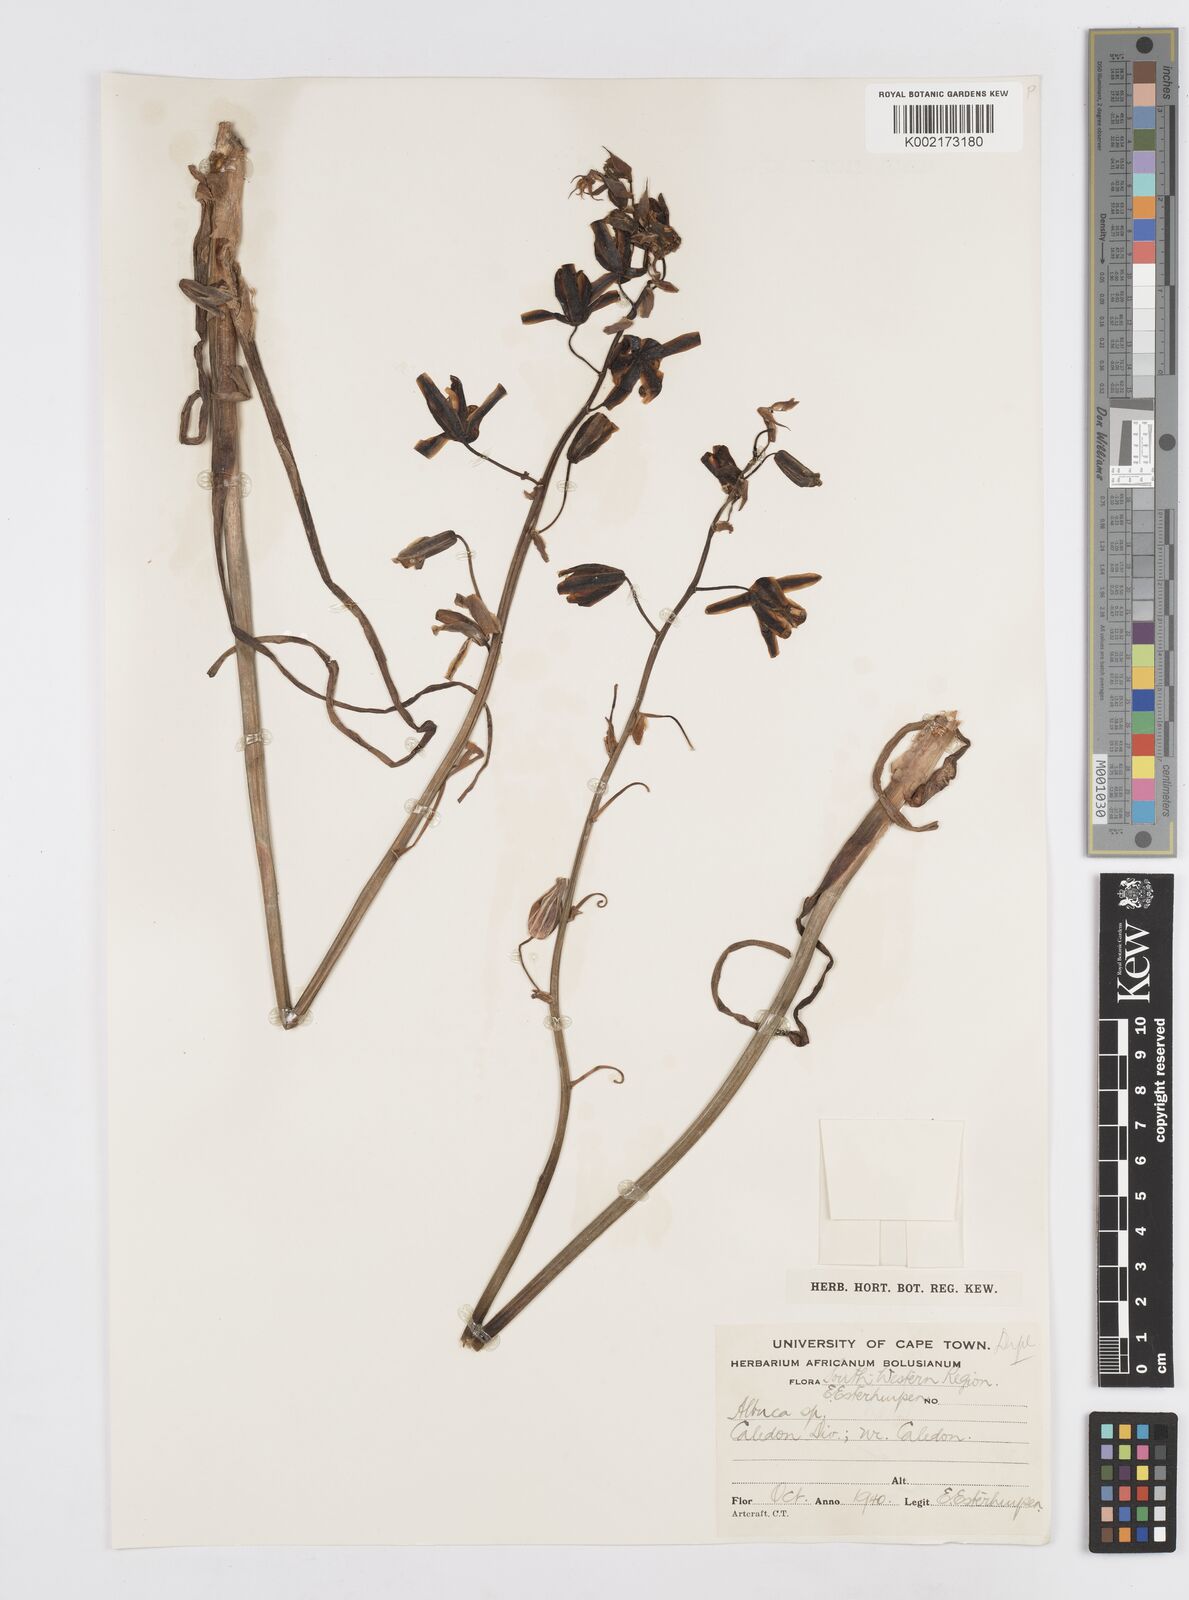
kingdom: Plantae
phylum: Tracheophyta
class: Liliopsida
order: Asparagales
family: Asparagaceae
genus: Albuca
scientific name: Albuca
